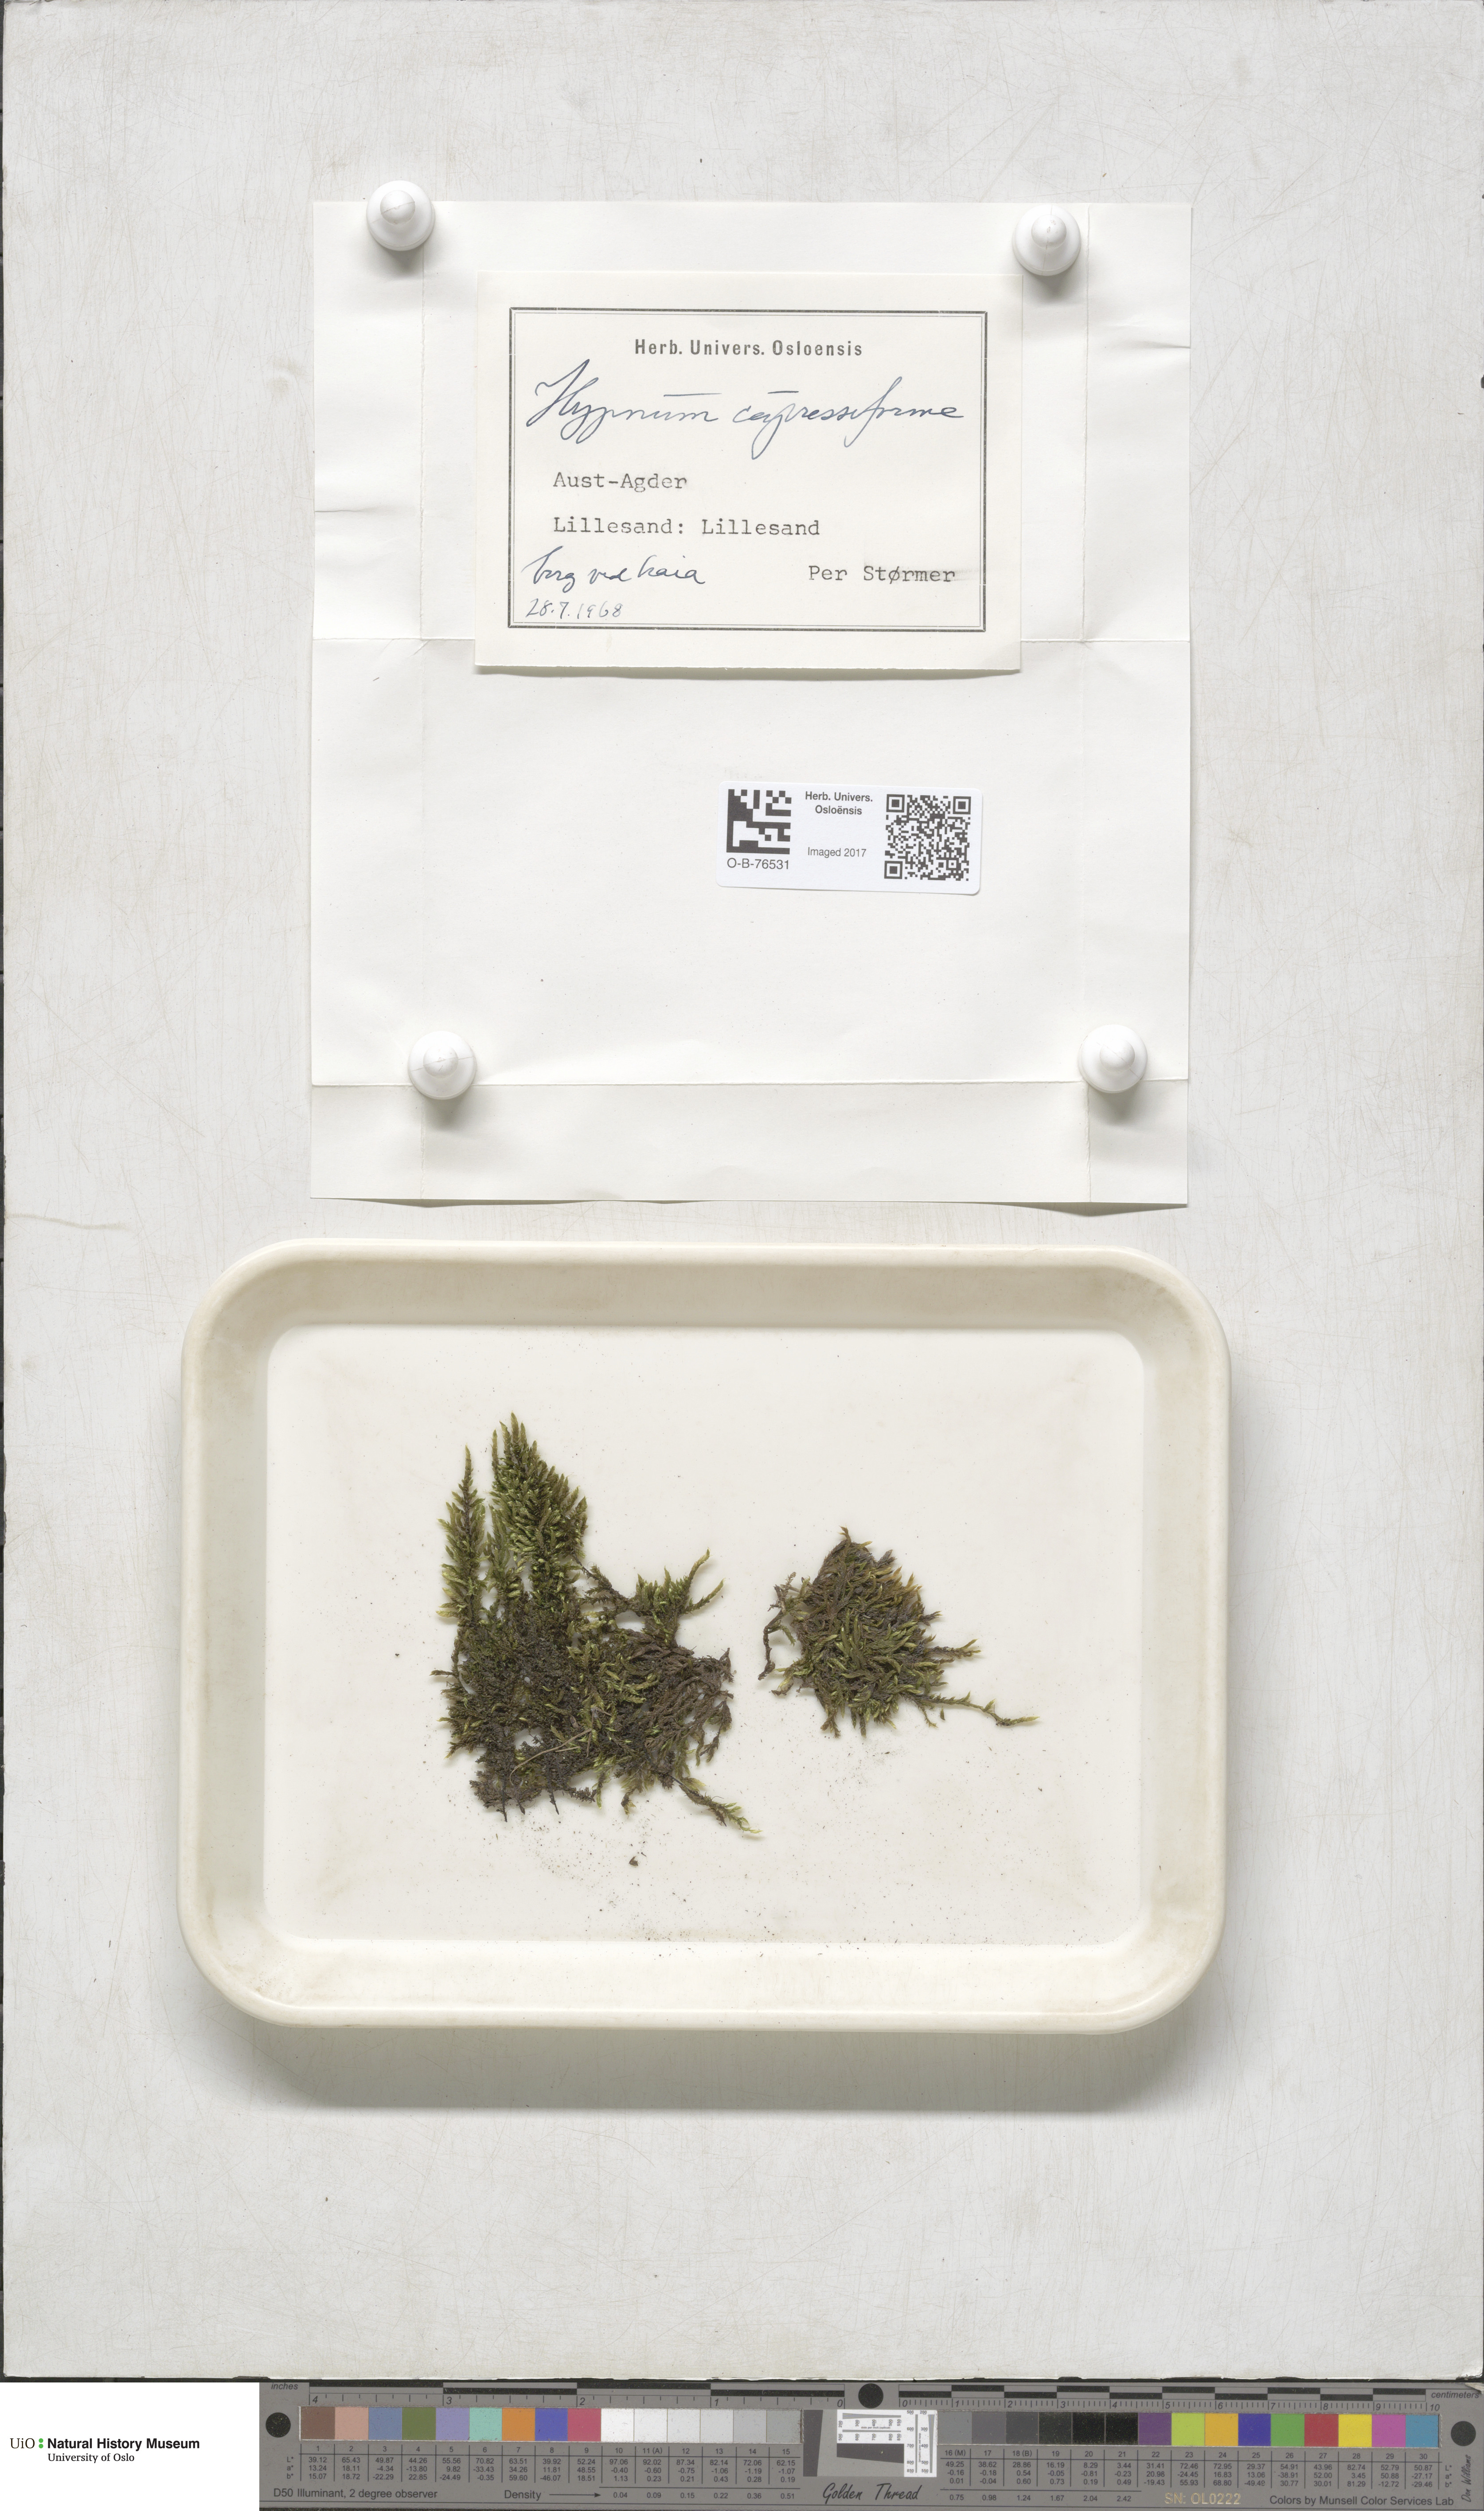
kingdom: Plantae
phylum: Bryophyta
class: Bryopsida
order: Hypnales
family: Hypnaceae
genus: Hypnum
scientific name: Hypnum cupressiforme
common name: Cypress-leaved plait-moss
